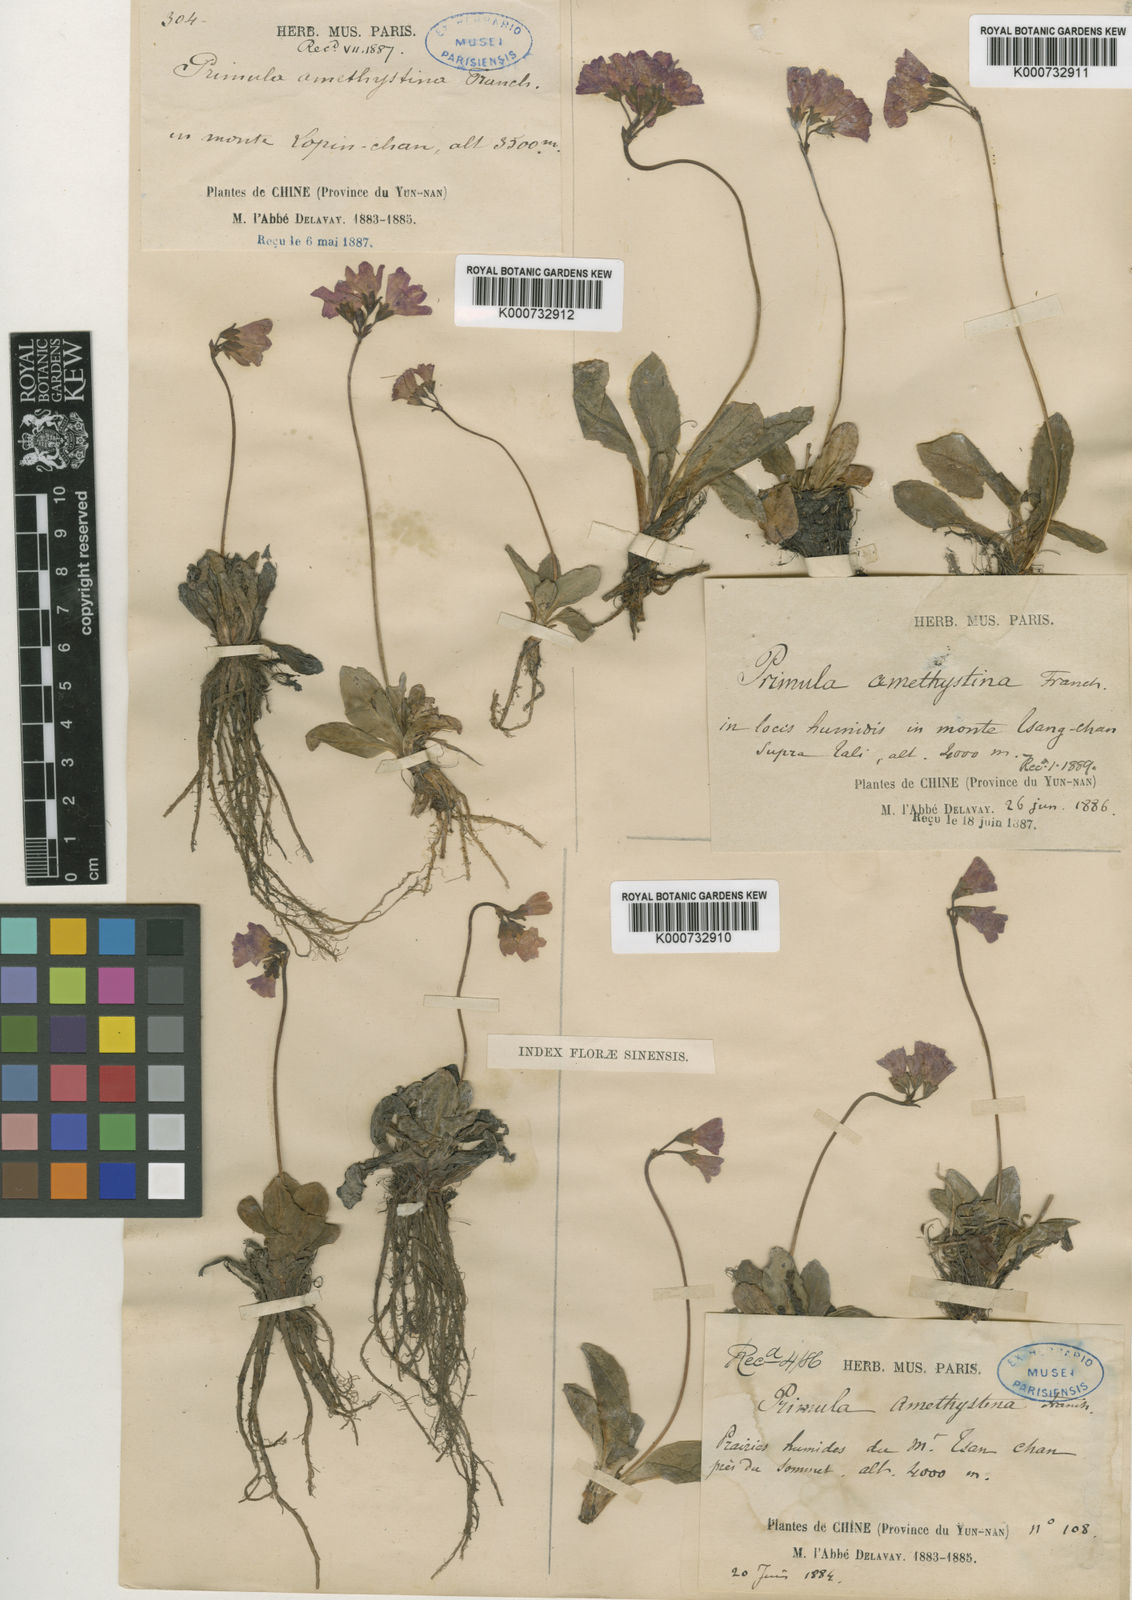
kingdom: Plantae
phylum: Tracheophyta
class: Magnoliopsida
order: Ericales
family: Primulaceae
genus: Primula
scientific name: Primula amethystina
